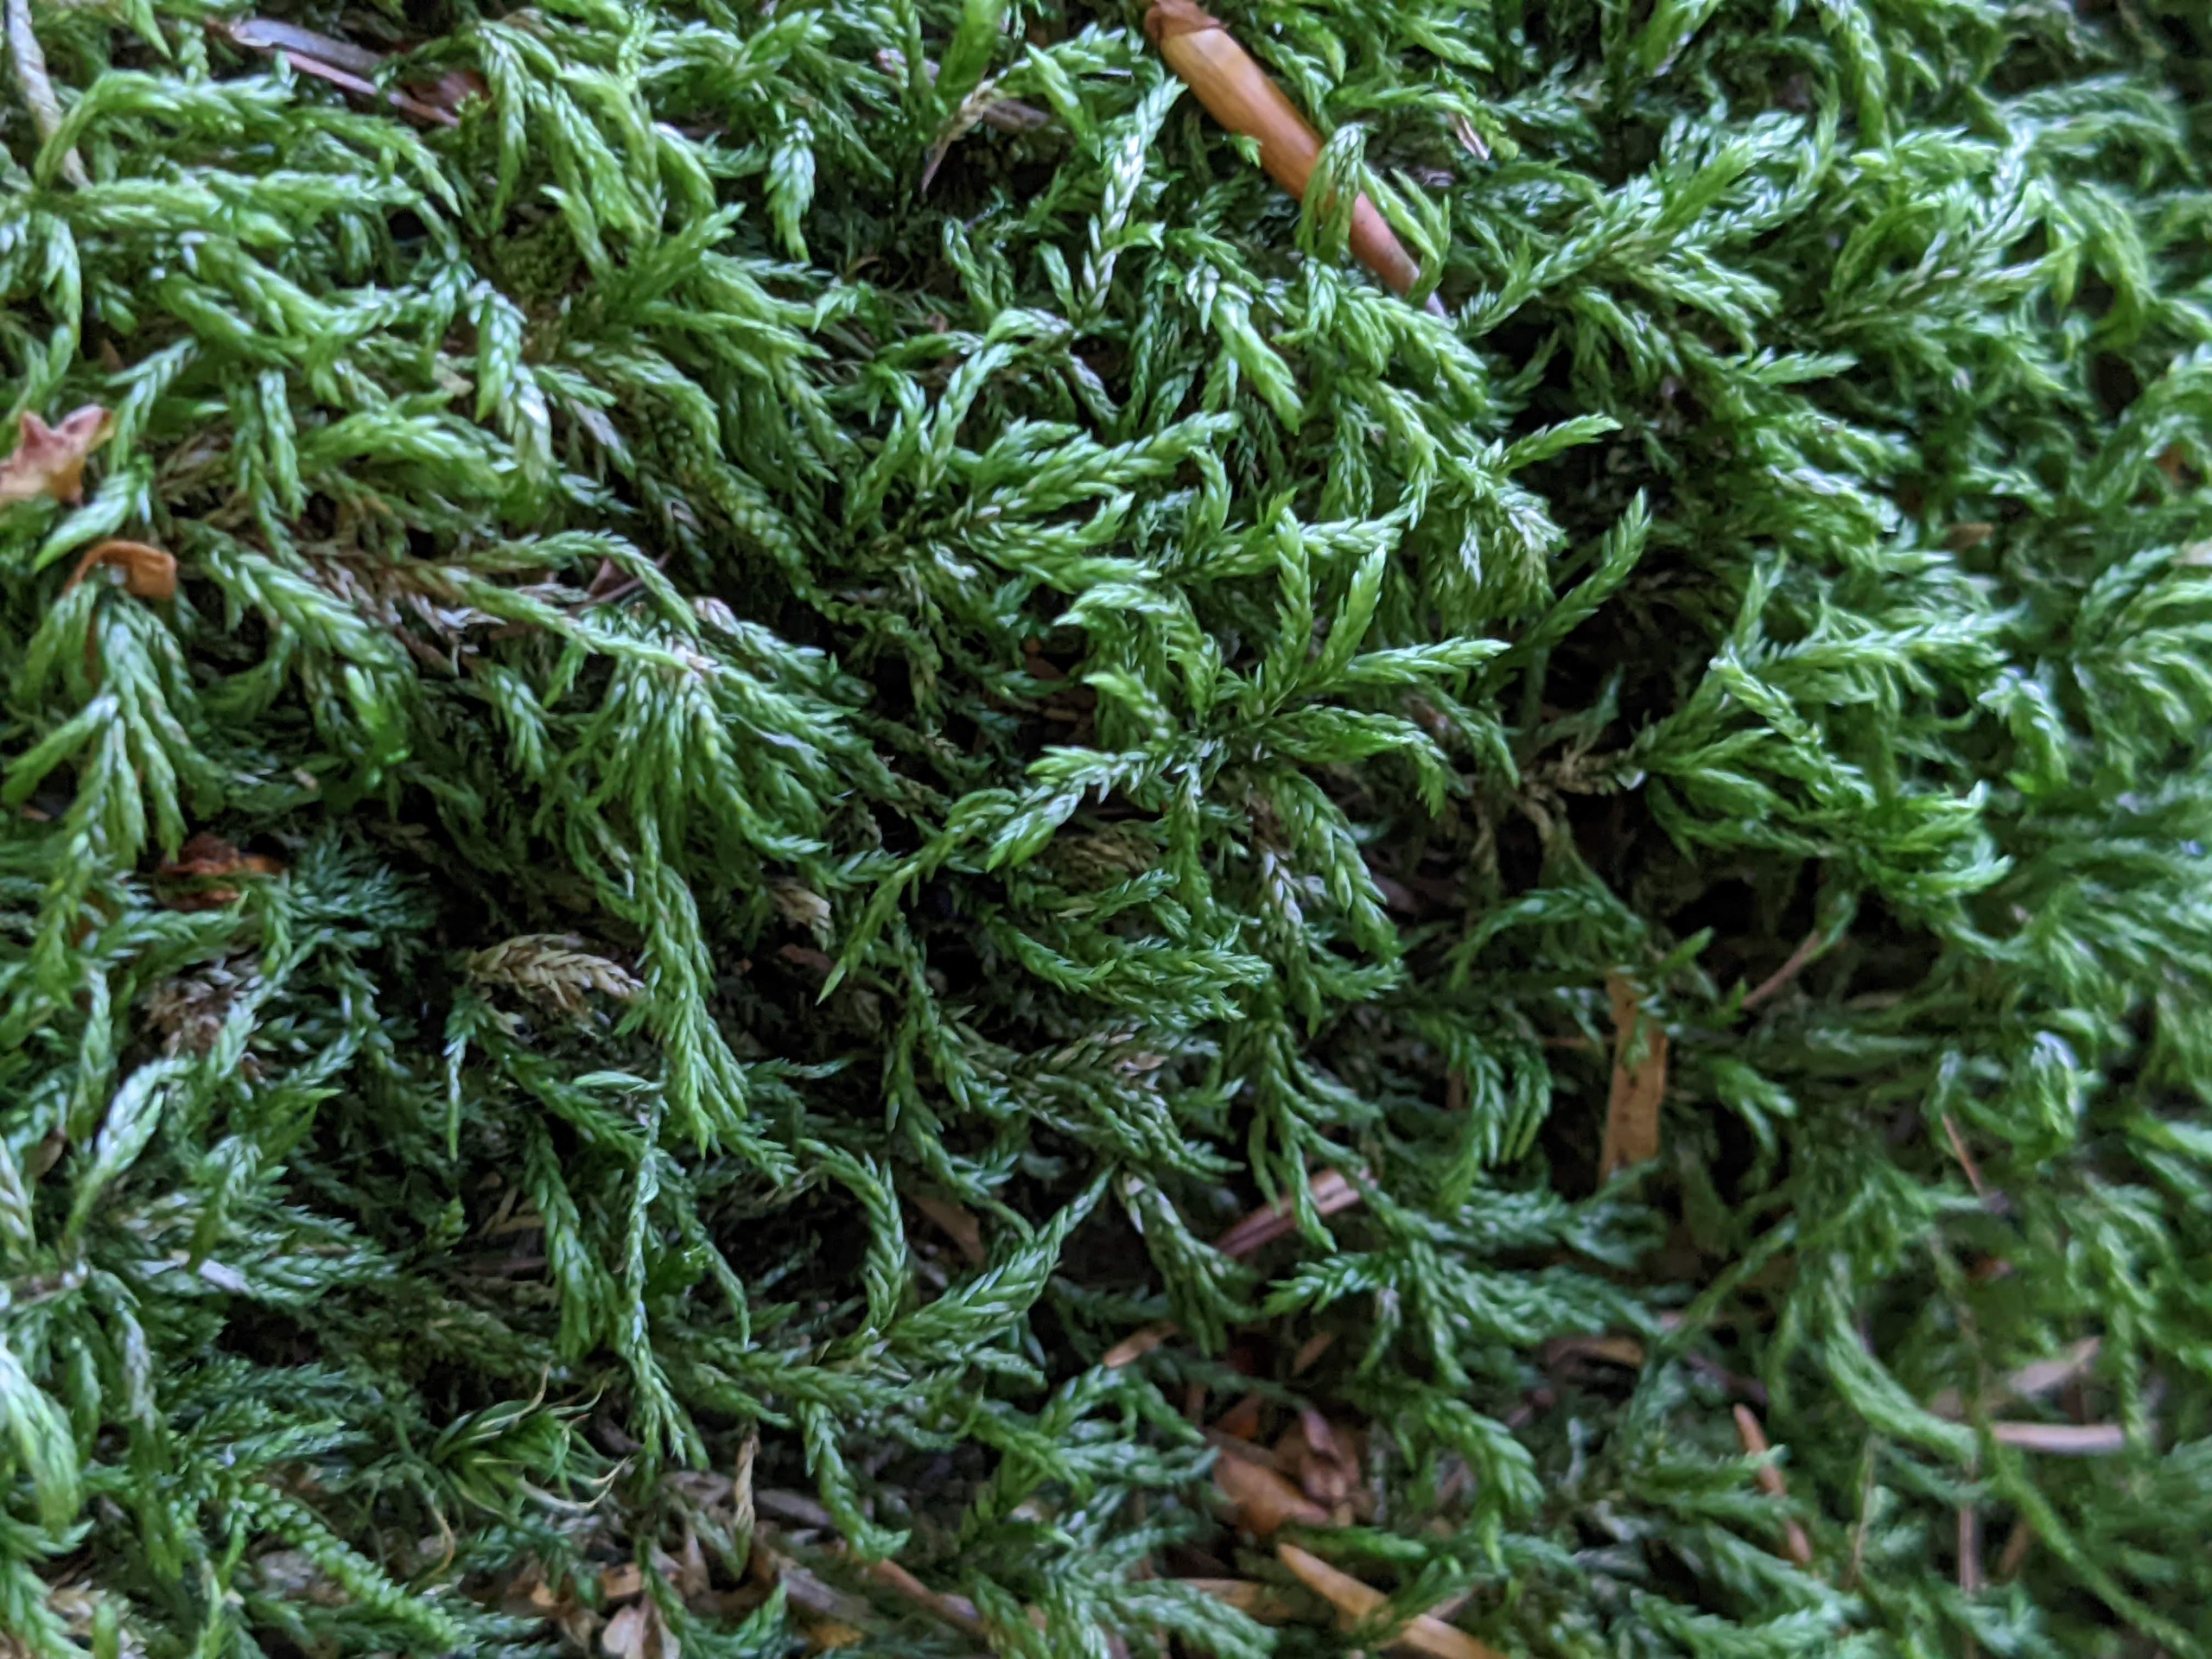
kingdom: Plantae
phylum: Bryophyta
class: Bryopsida
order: Hypnales
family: Lembophyllaceae
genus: Isothecium
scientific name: Isothecium alopecuroides
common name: Stor stammemos
